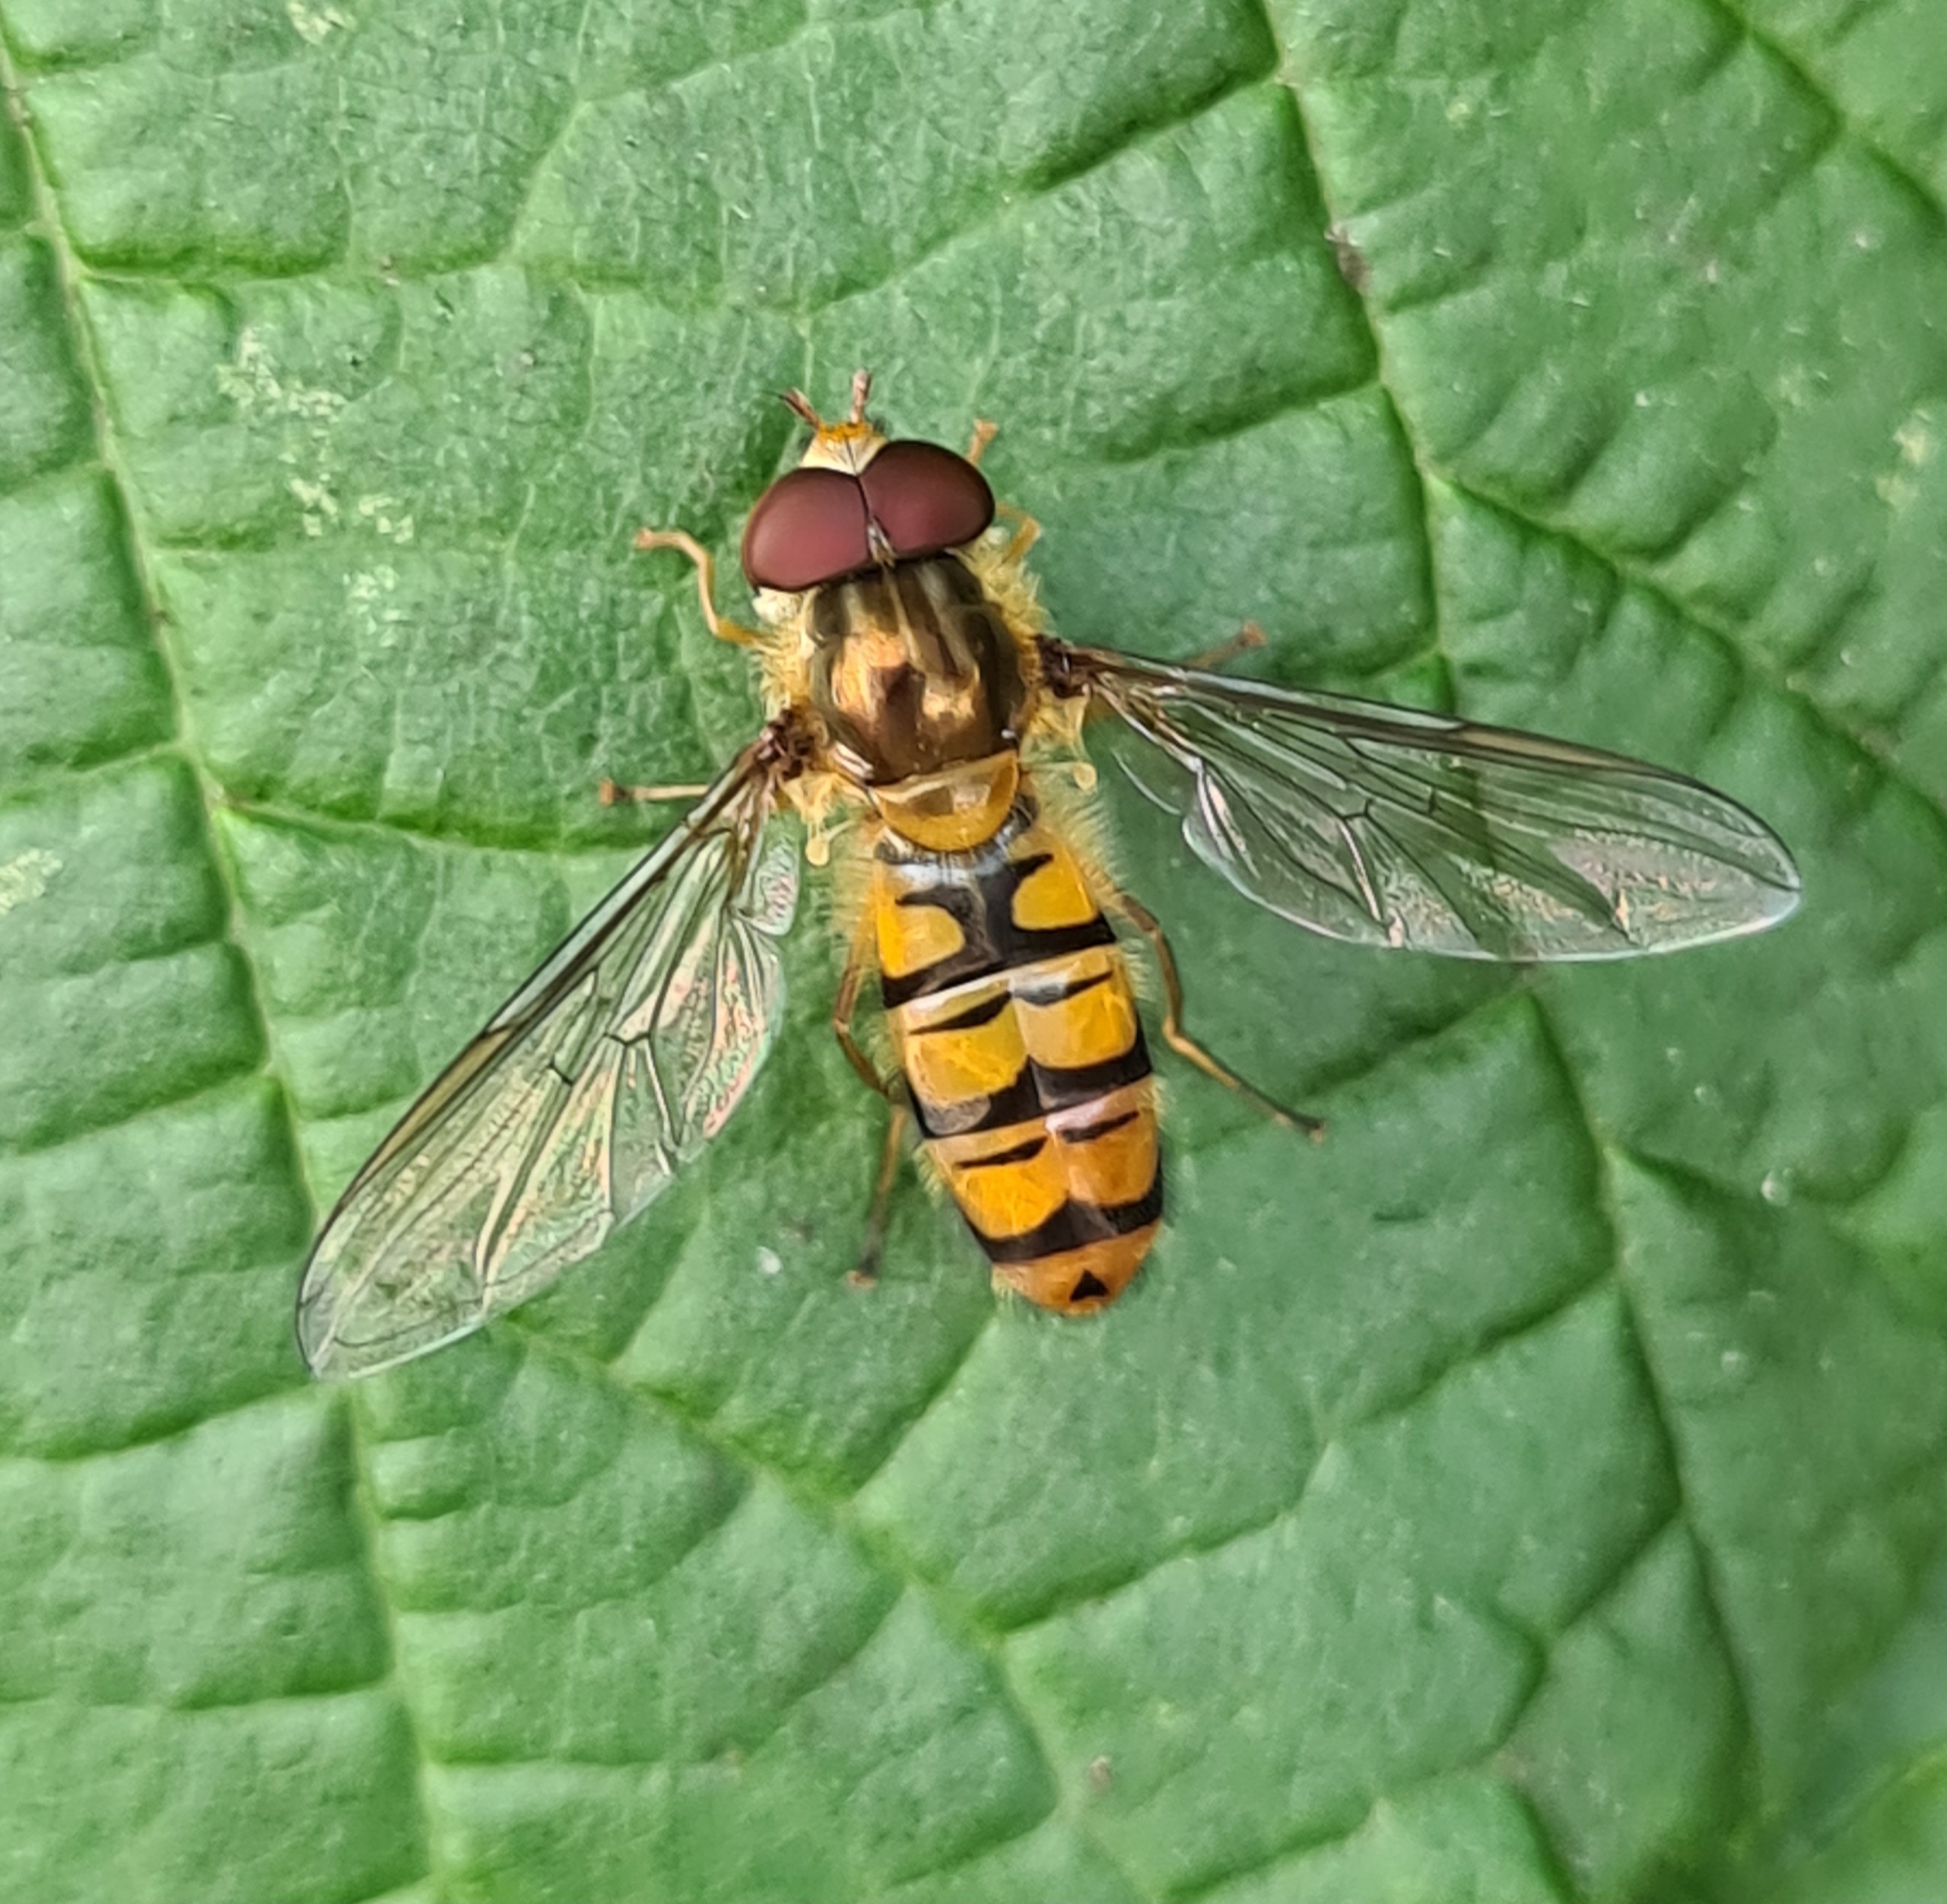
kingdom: Animalia
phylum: Arthropoda
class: Insecta
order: Diptera
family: Syrphidae
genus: Episyrphus
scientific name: Episyrphus balteatus
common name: Dobbeltbåndet svirreflue
